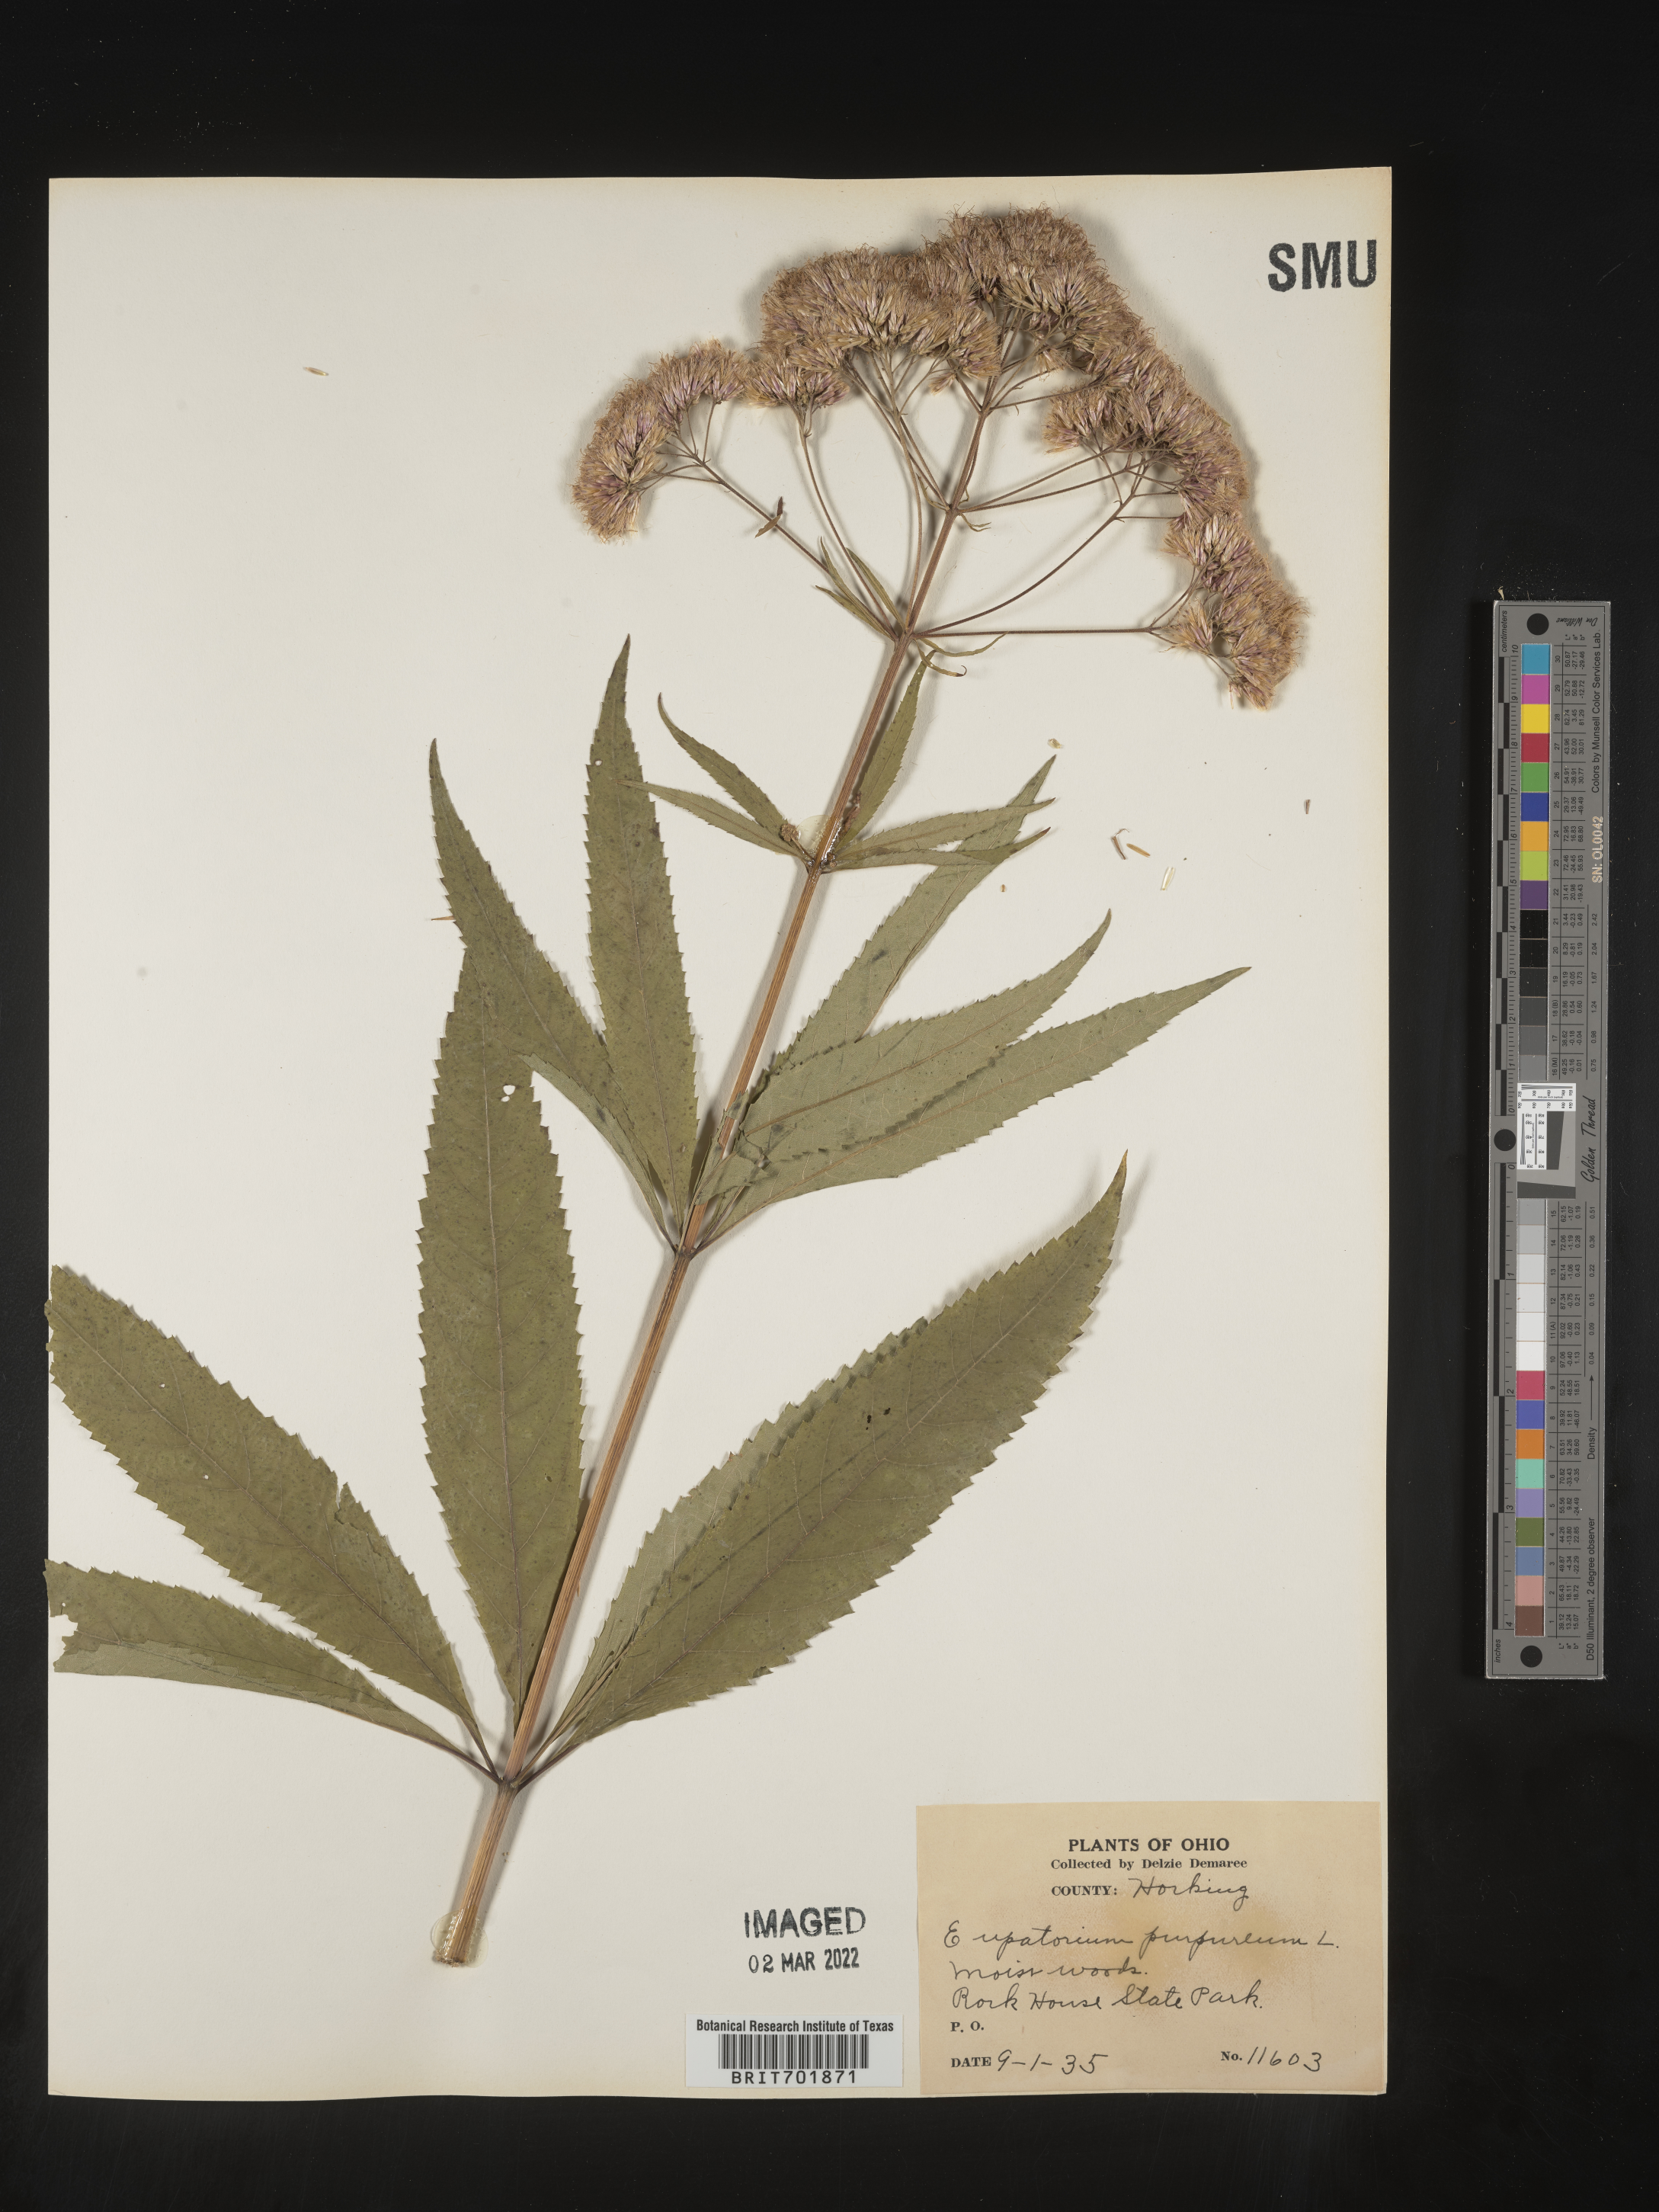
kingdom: Plantae
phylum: Tracheophyta
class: Magnoliopsida
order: Asterales
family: Asteraceae
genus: Eupatorium
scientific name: Eupatorium quaternum
